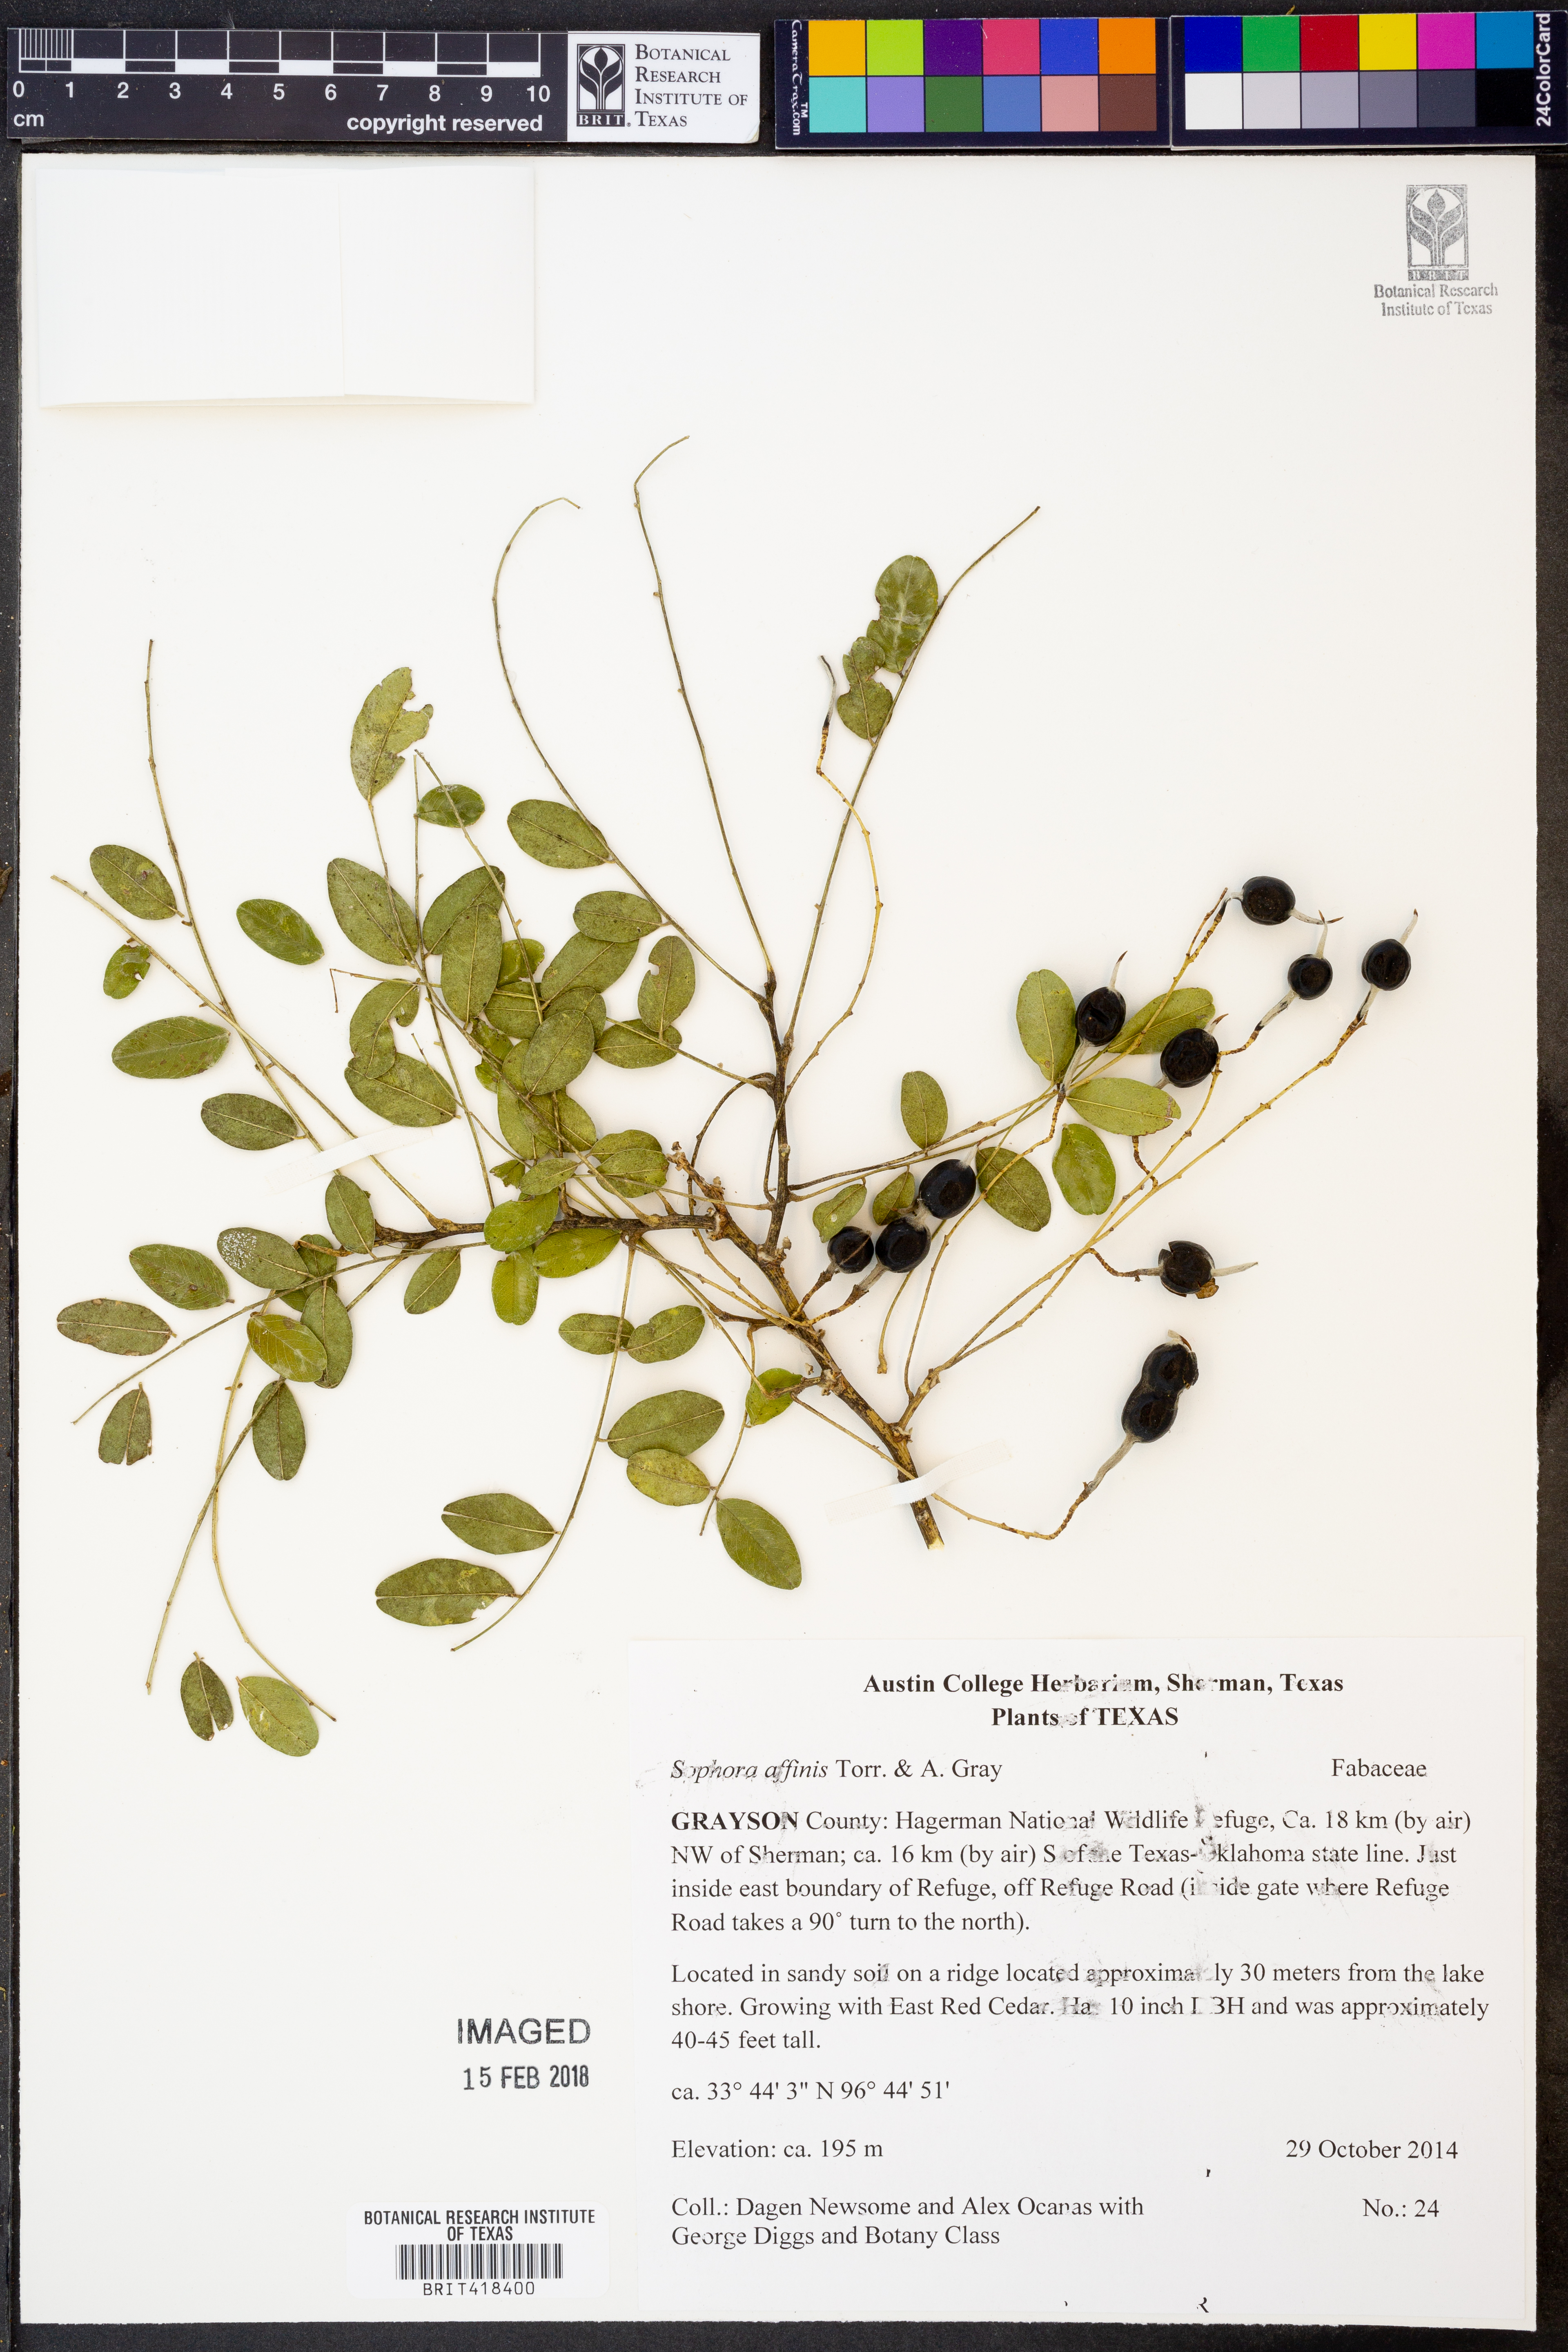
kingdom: Plantae
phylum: Tracheophyta
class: Magnoliopsida
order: Fabales
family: Fabaceae
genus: Styphnolobium
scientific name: Styphnolobium affine
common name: Texas sophora
